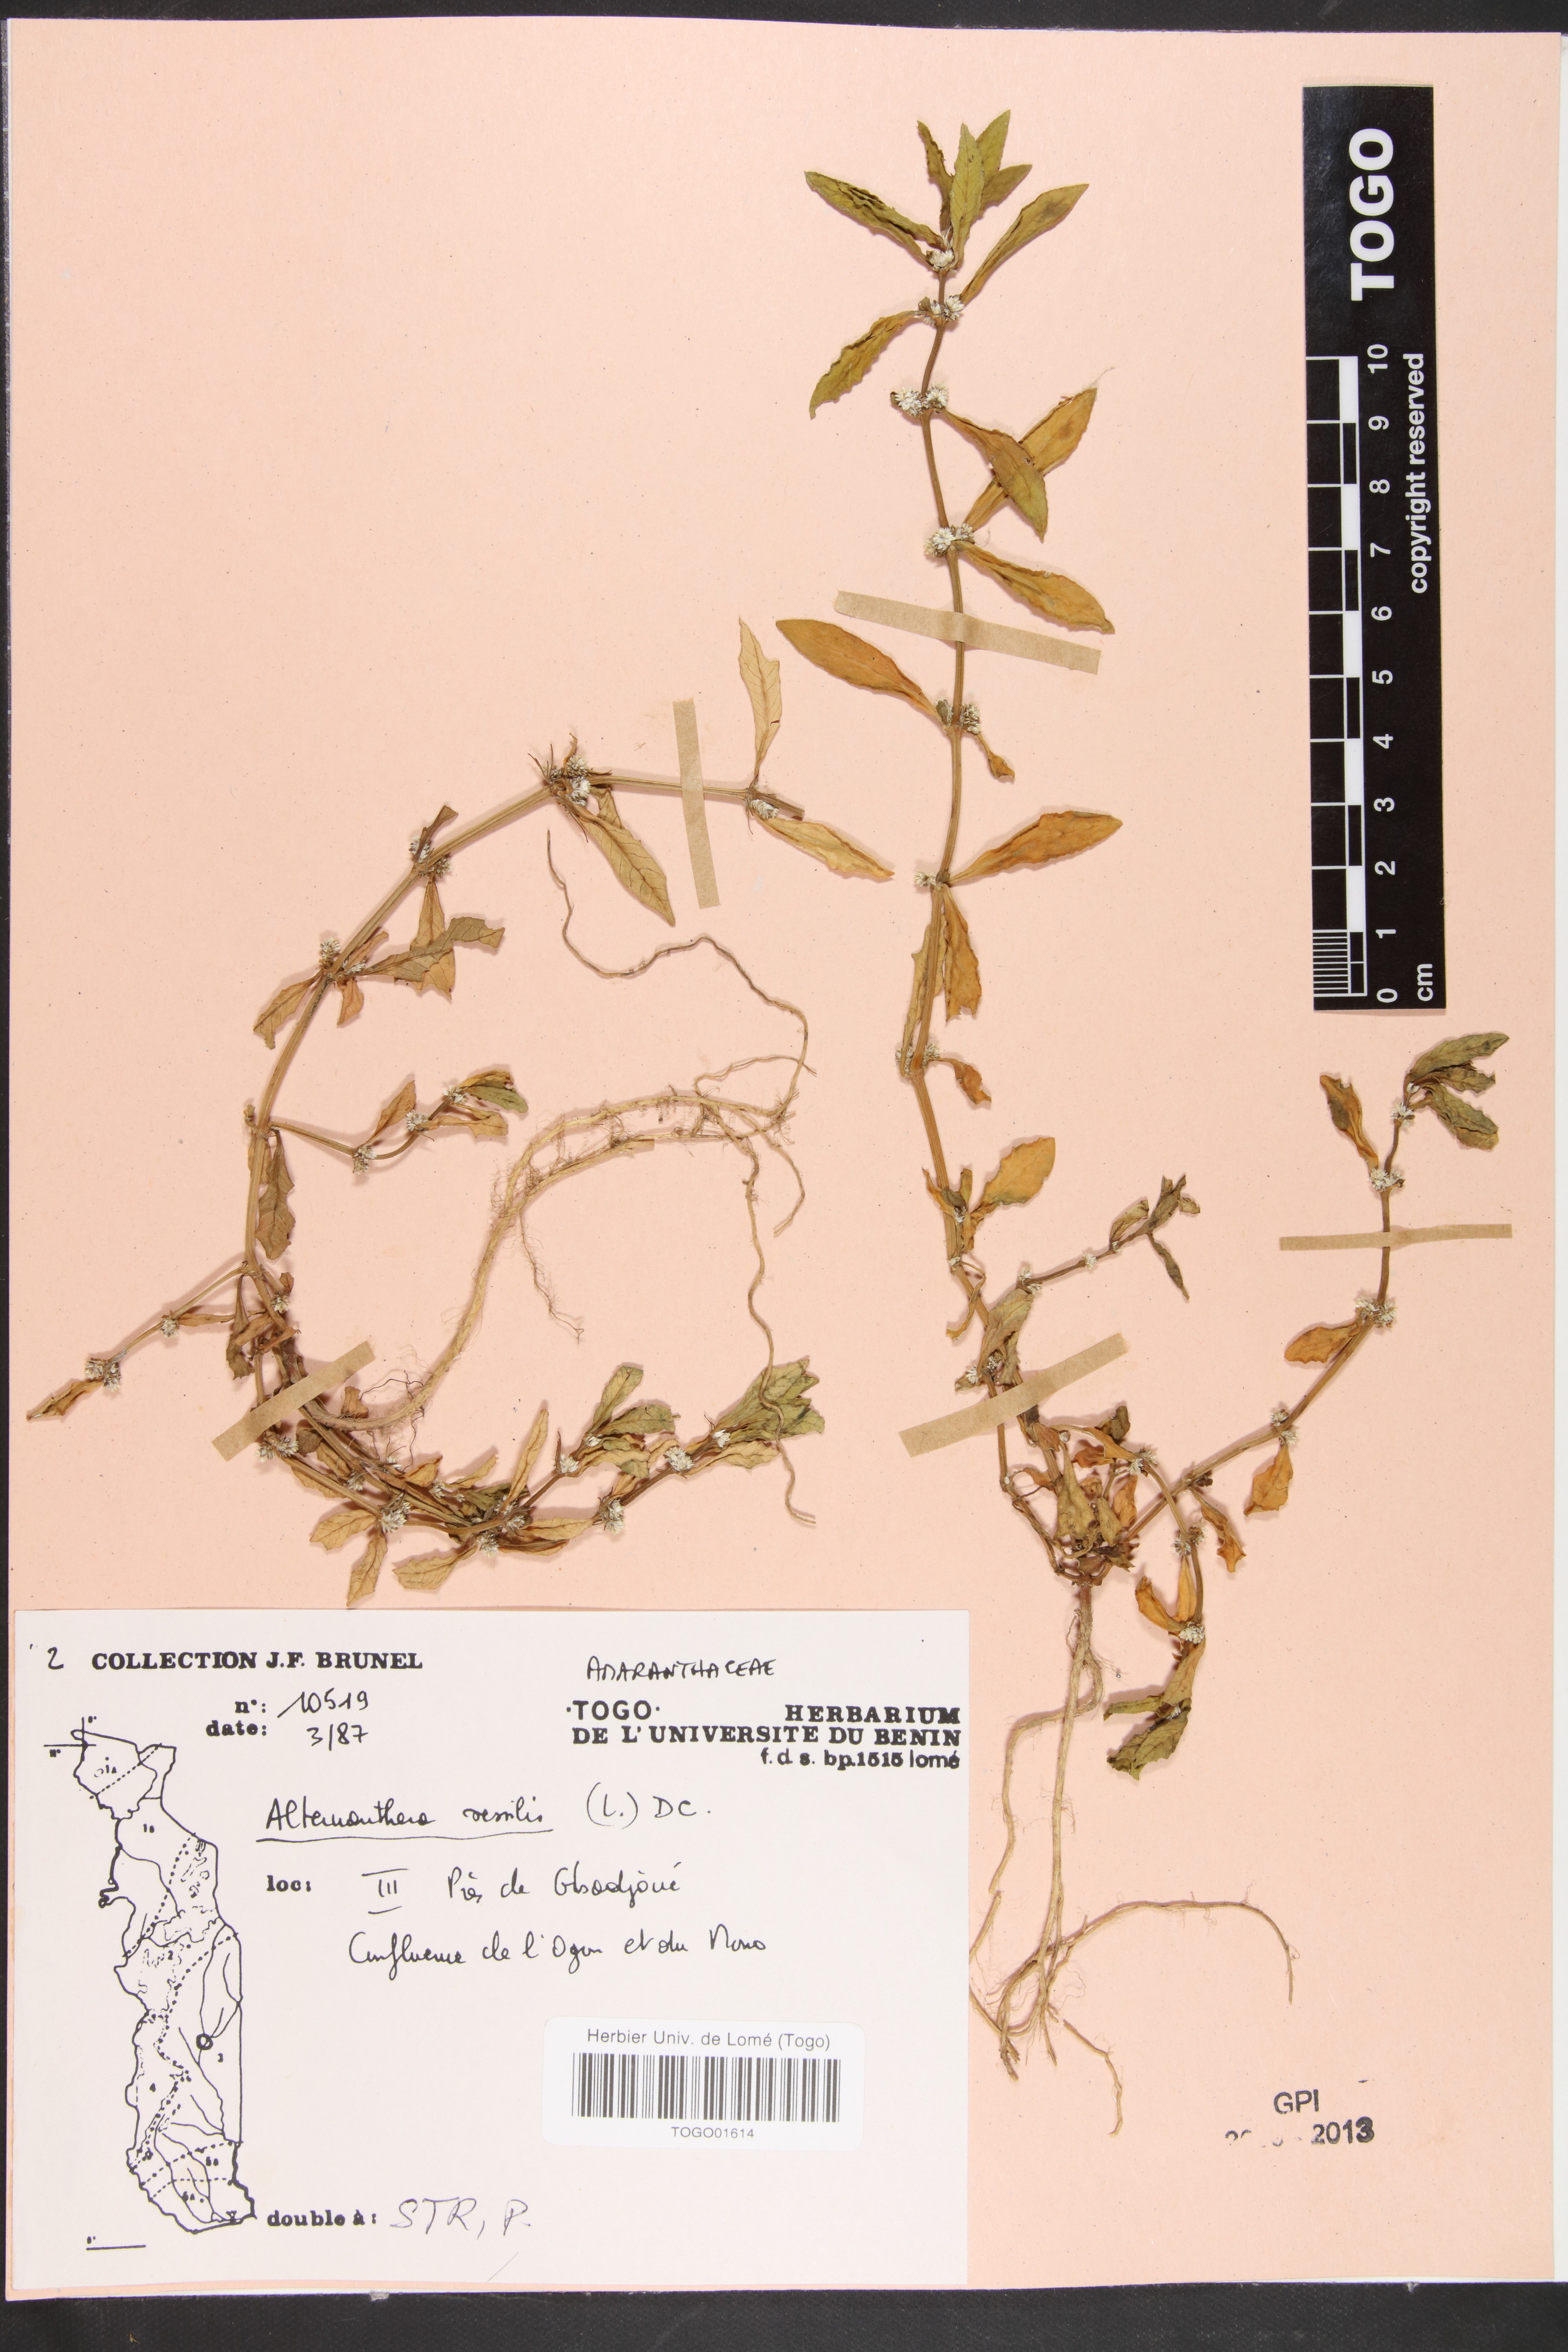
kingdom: Plantae
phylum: Tracheophyta
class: Magnoliopsida
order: Caryophyllales
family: Amaranthaceae
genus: Alternanthera
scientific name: Alternanthera sessilis
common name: Sessile joyweed
